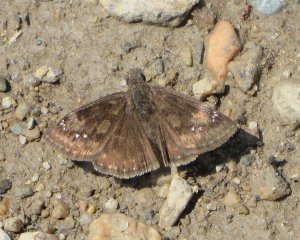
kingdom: Animalia
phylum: Arthropoda
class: Insecta
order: Lepidoptera
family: Hesperiidae
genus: Gesta
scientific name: Gesta
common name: Wild Indigo Duskywing
